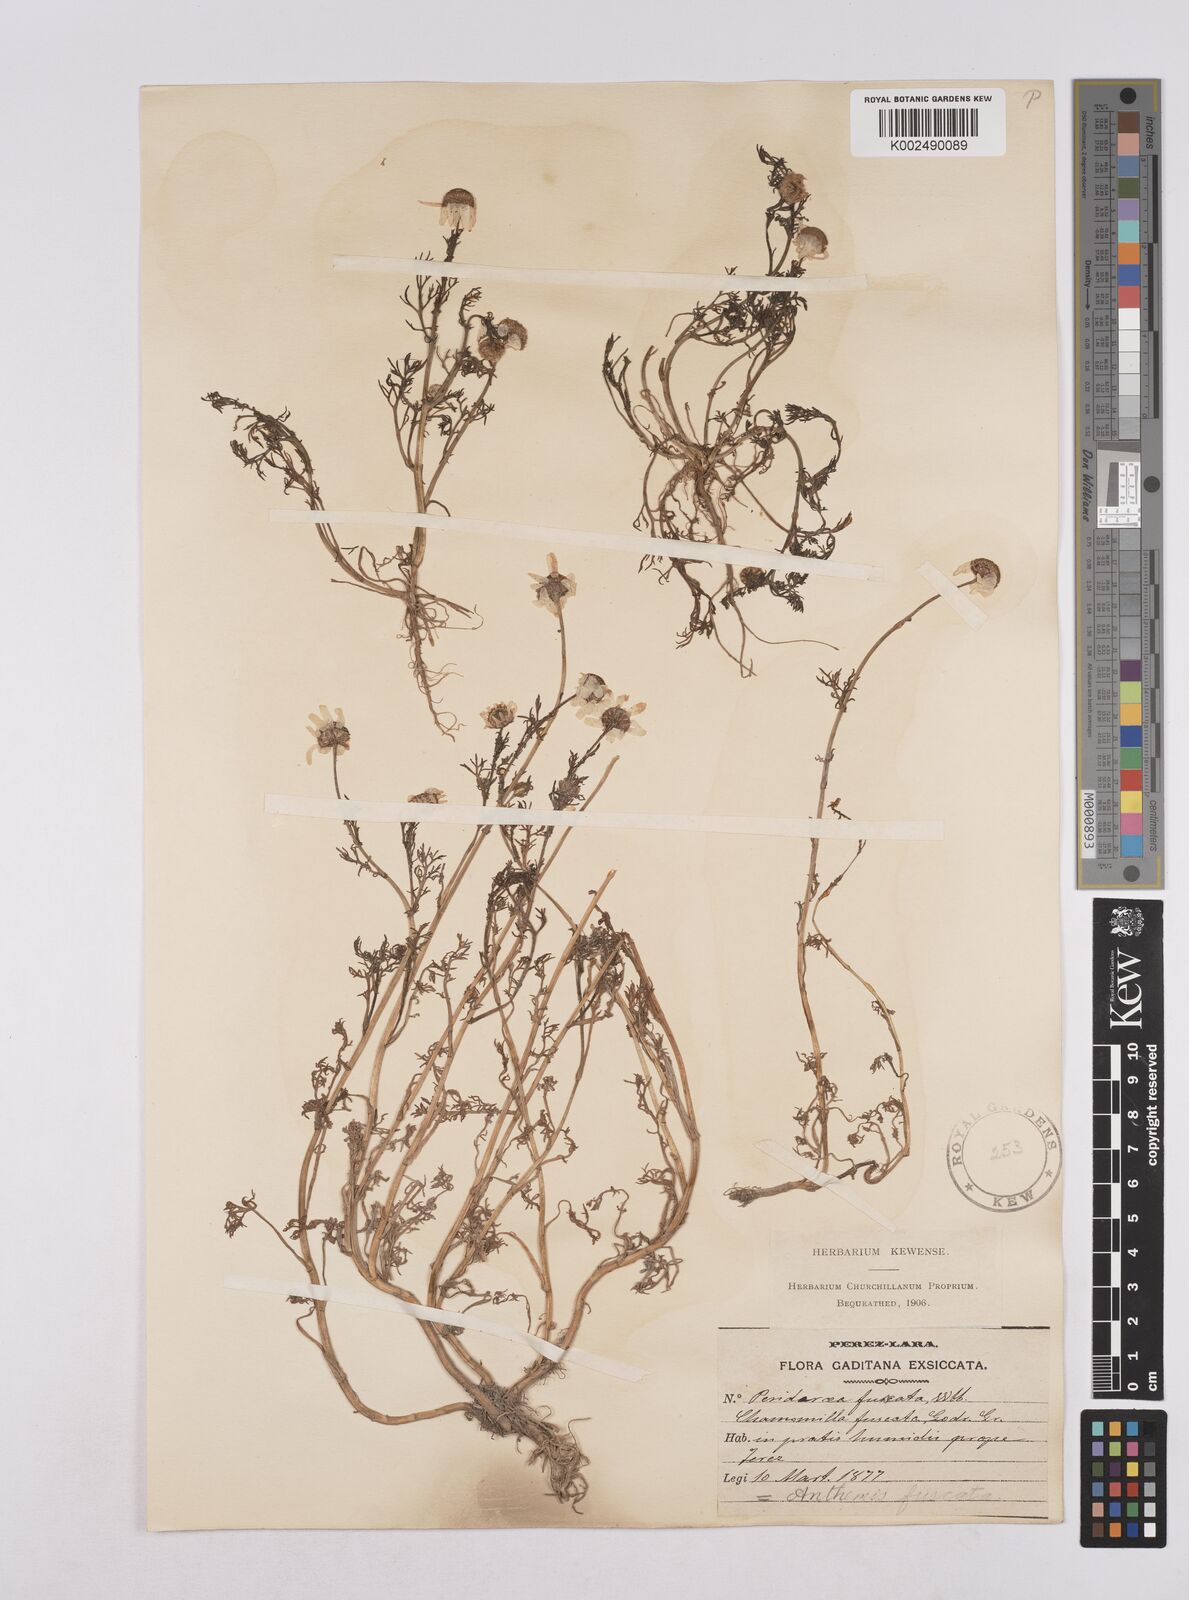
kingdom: Plantae
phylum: Tracheophyta
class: Magnoliopsida
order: Asterales
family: Asteraceae
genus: Chamaemelum
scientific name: Chamaemelum fuscatum
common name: Chamomile
